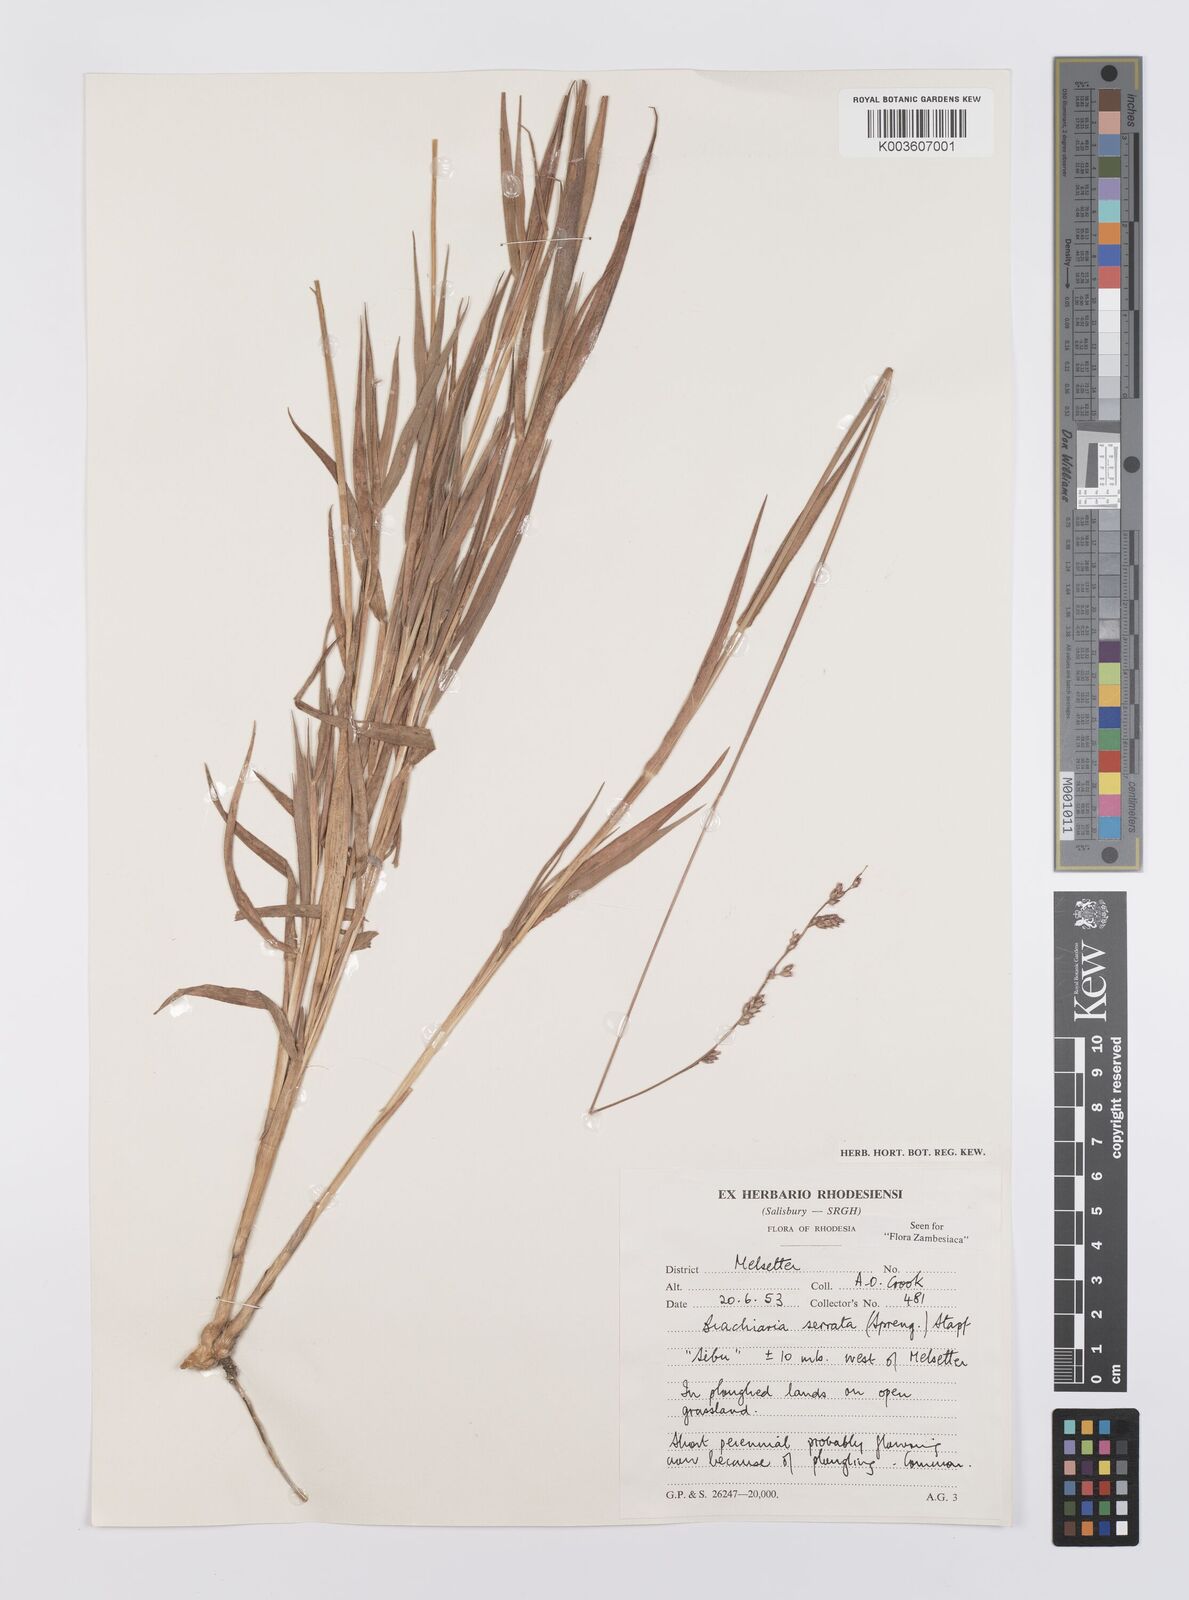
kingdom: Plantae
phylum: Tracheophyta
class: Liliopsida
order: Poales
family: Poaceae
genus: Urochloa
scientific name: Urochloa serrata
